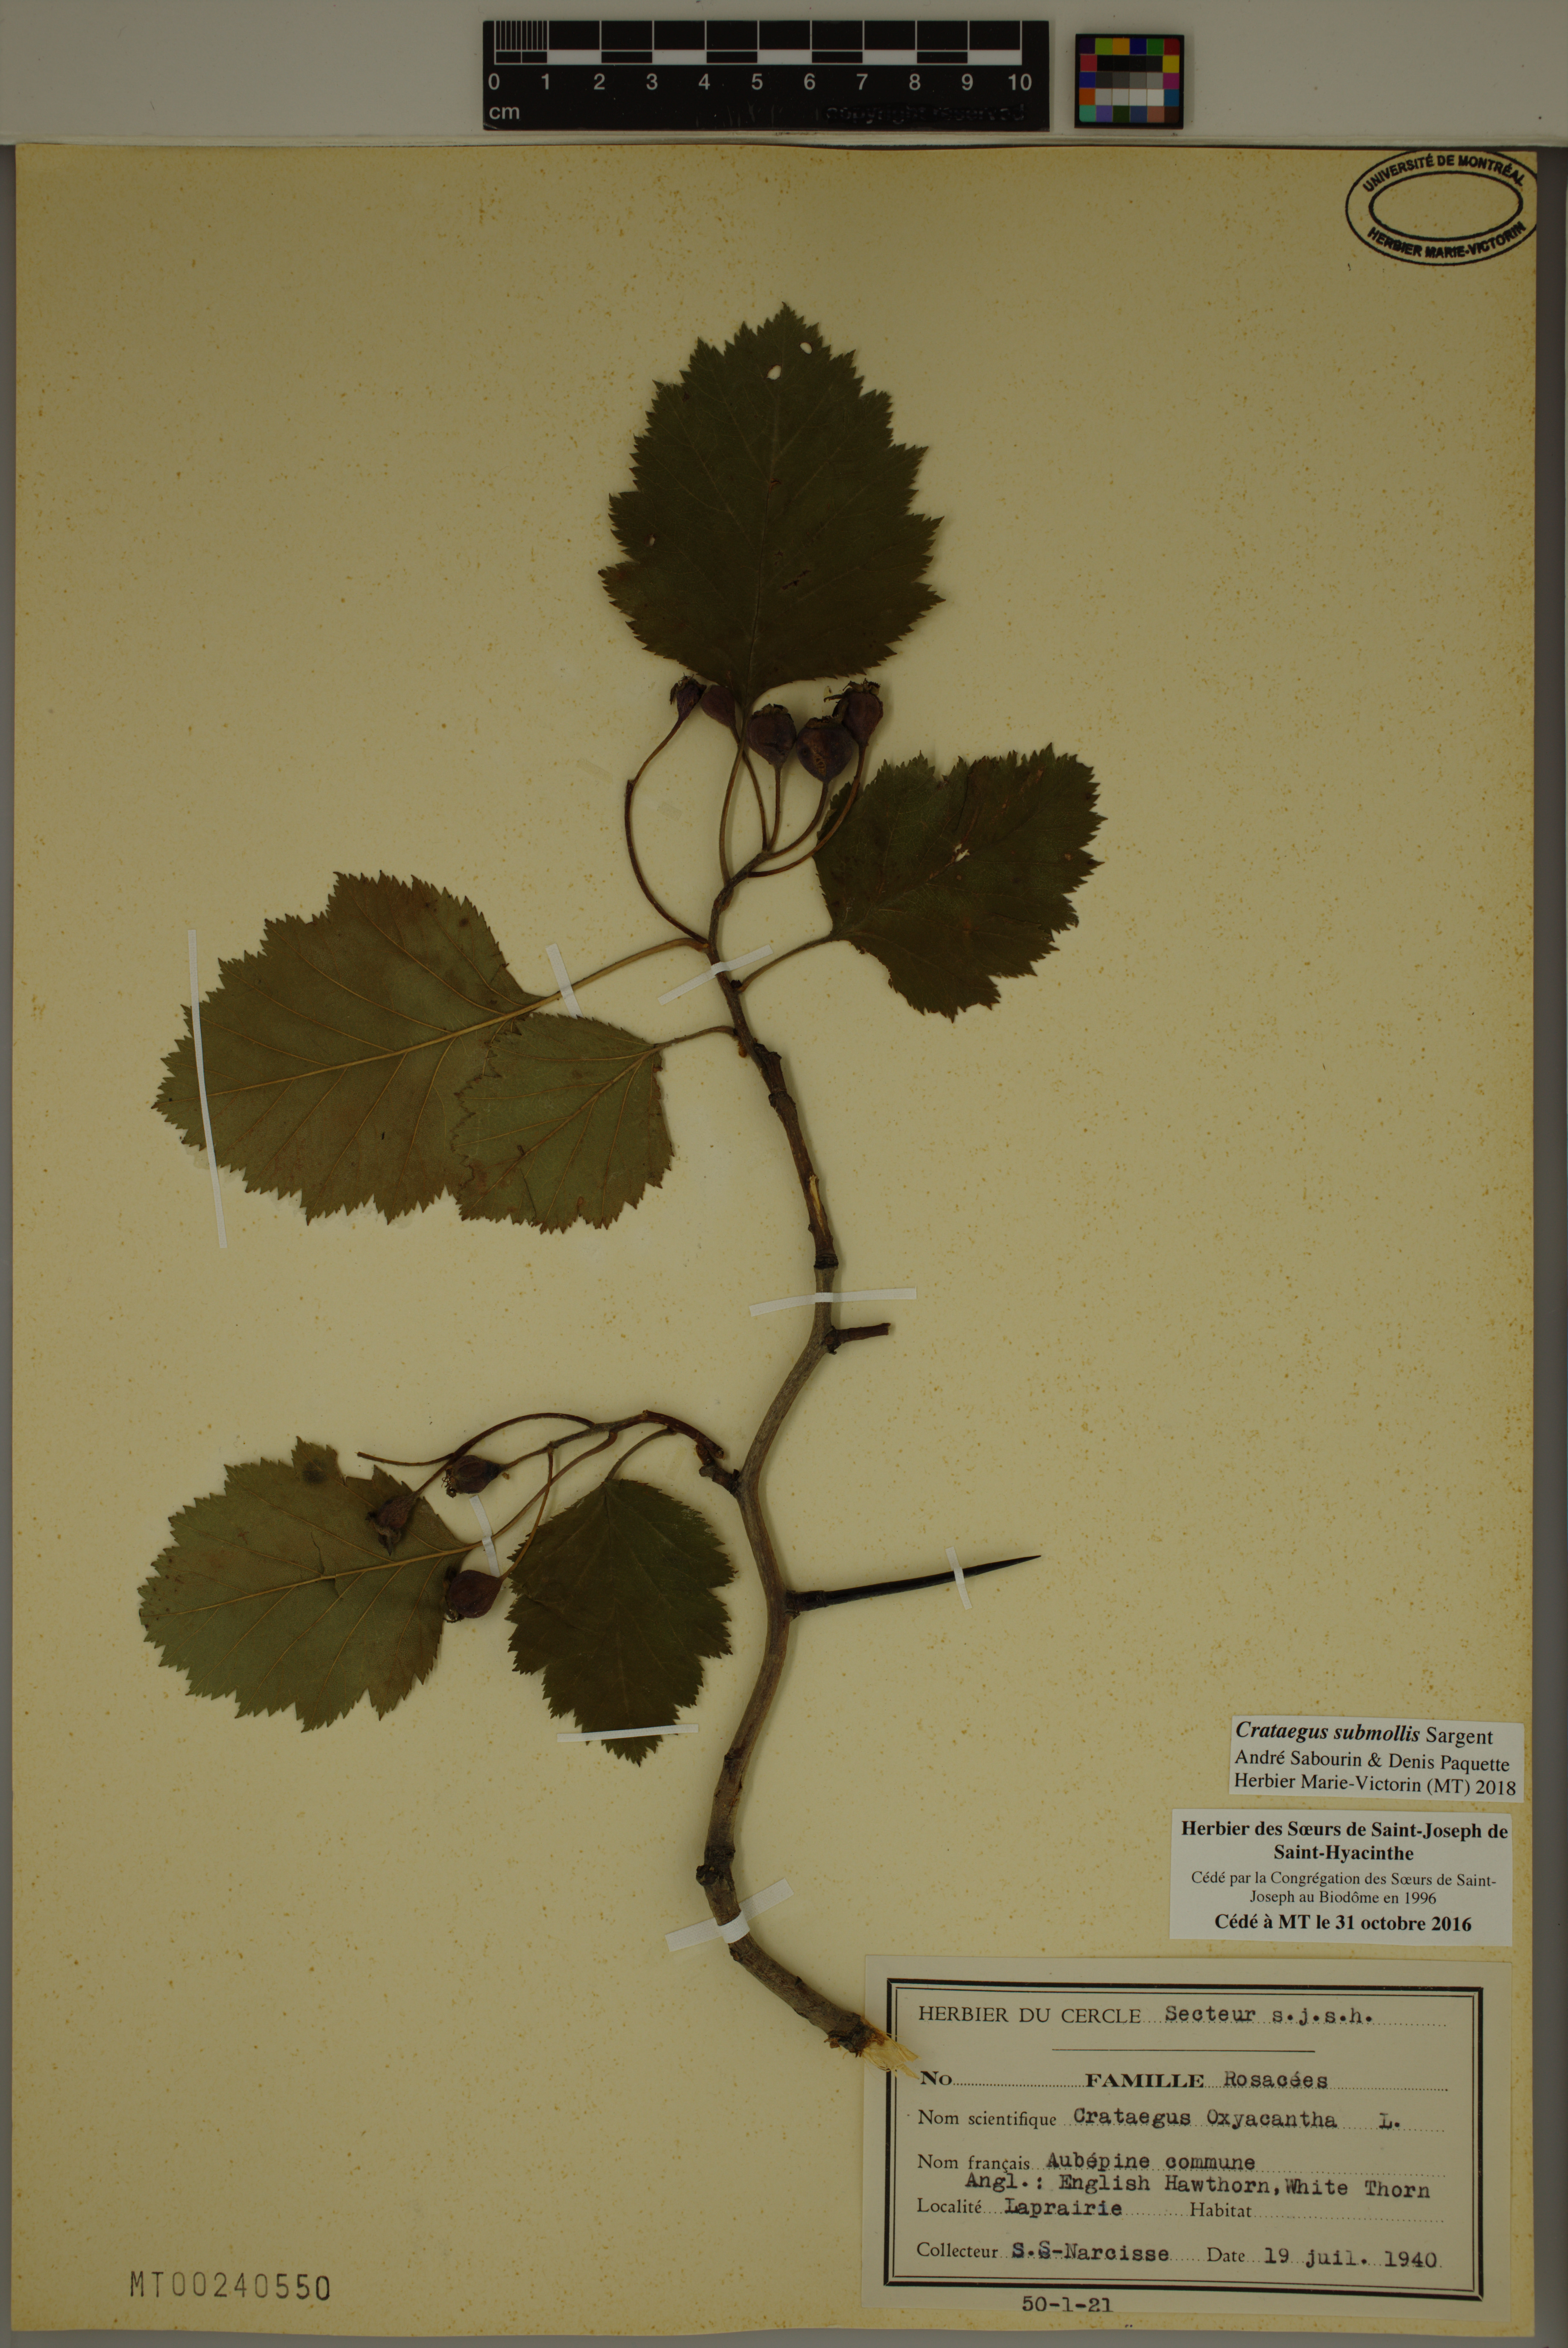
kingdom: Plantae
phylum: Tracheophyta
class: Magnoliopsida
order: Rosales
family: Rosaceae
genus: Crataegus
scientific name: Crataegus submollis
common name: Hairy cockspurthorn
